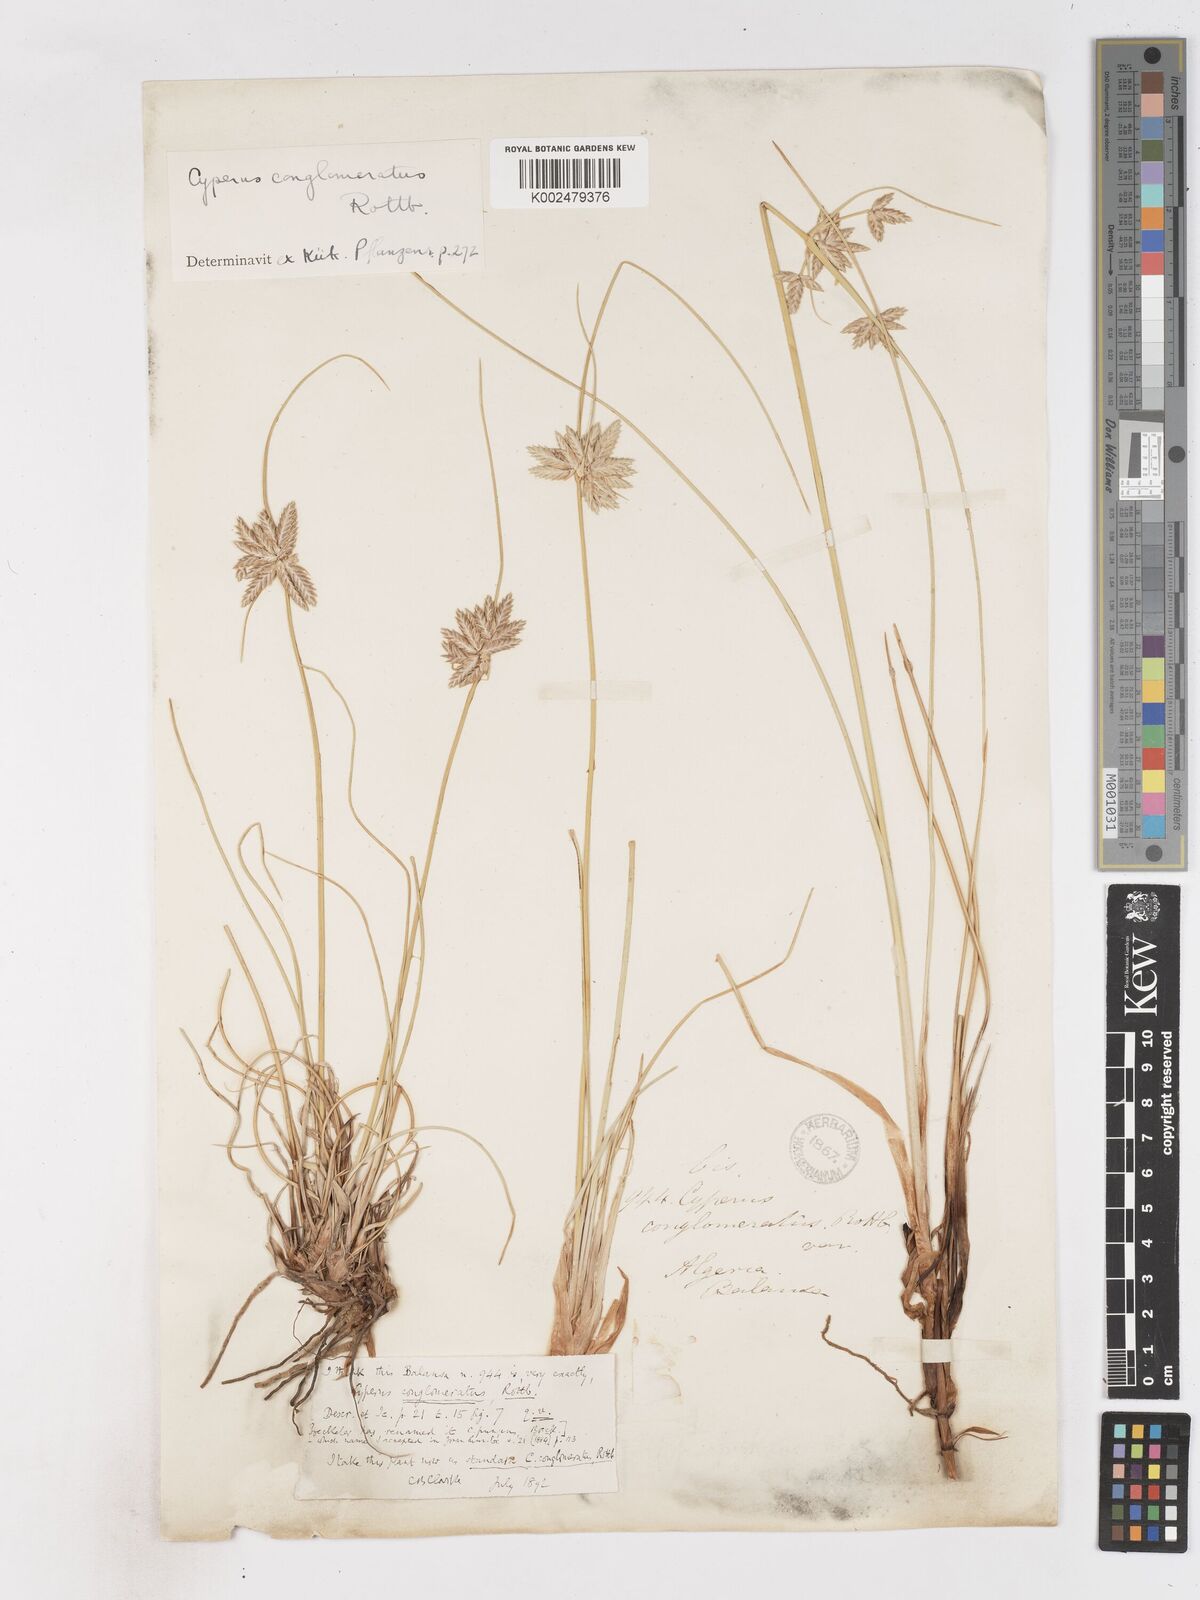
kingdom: Plantae
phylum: Tracheophyta
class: Liliopsida
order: Poales
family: Cyperaceae
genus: Cyperus
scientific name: Cyperus conglomeratus
